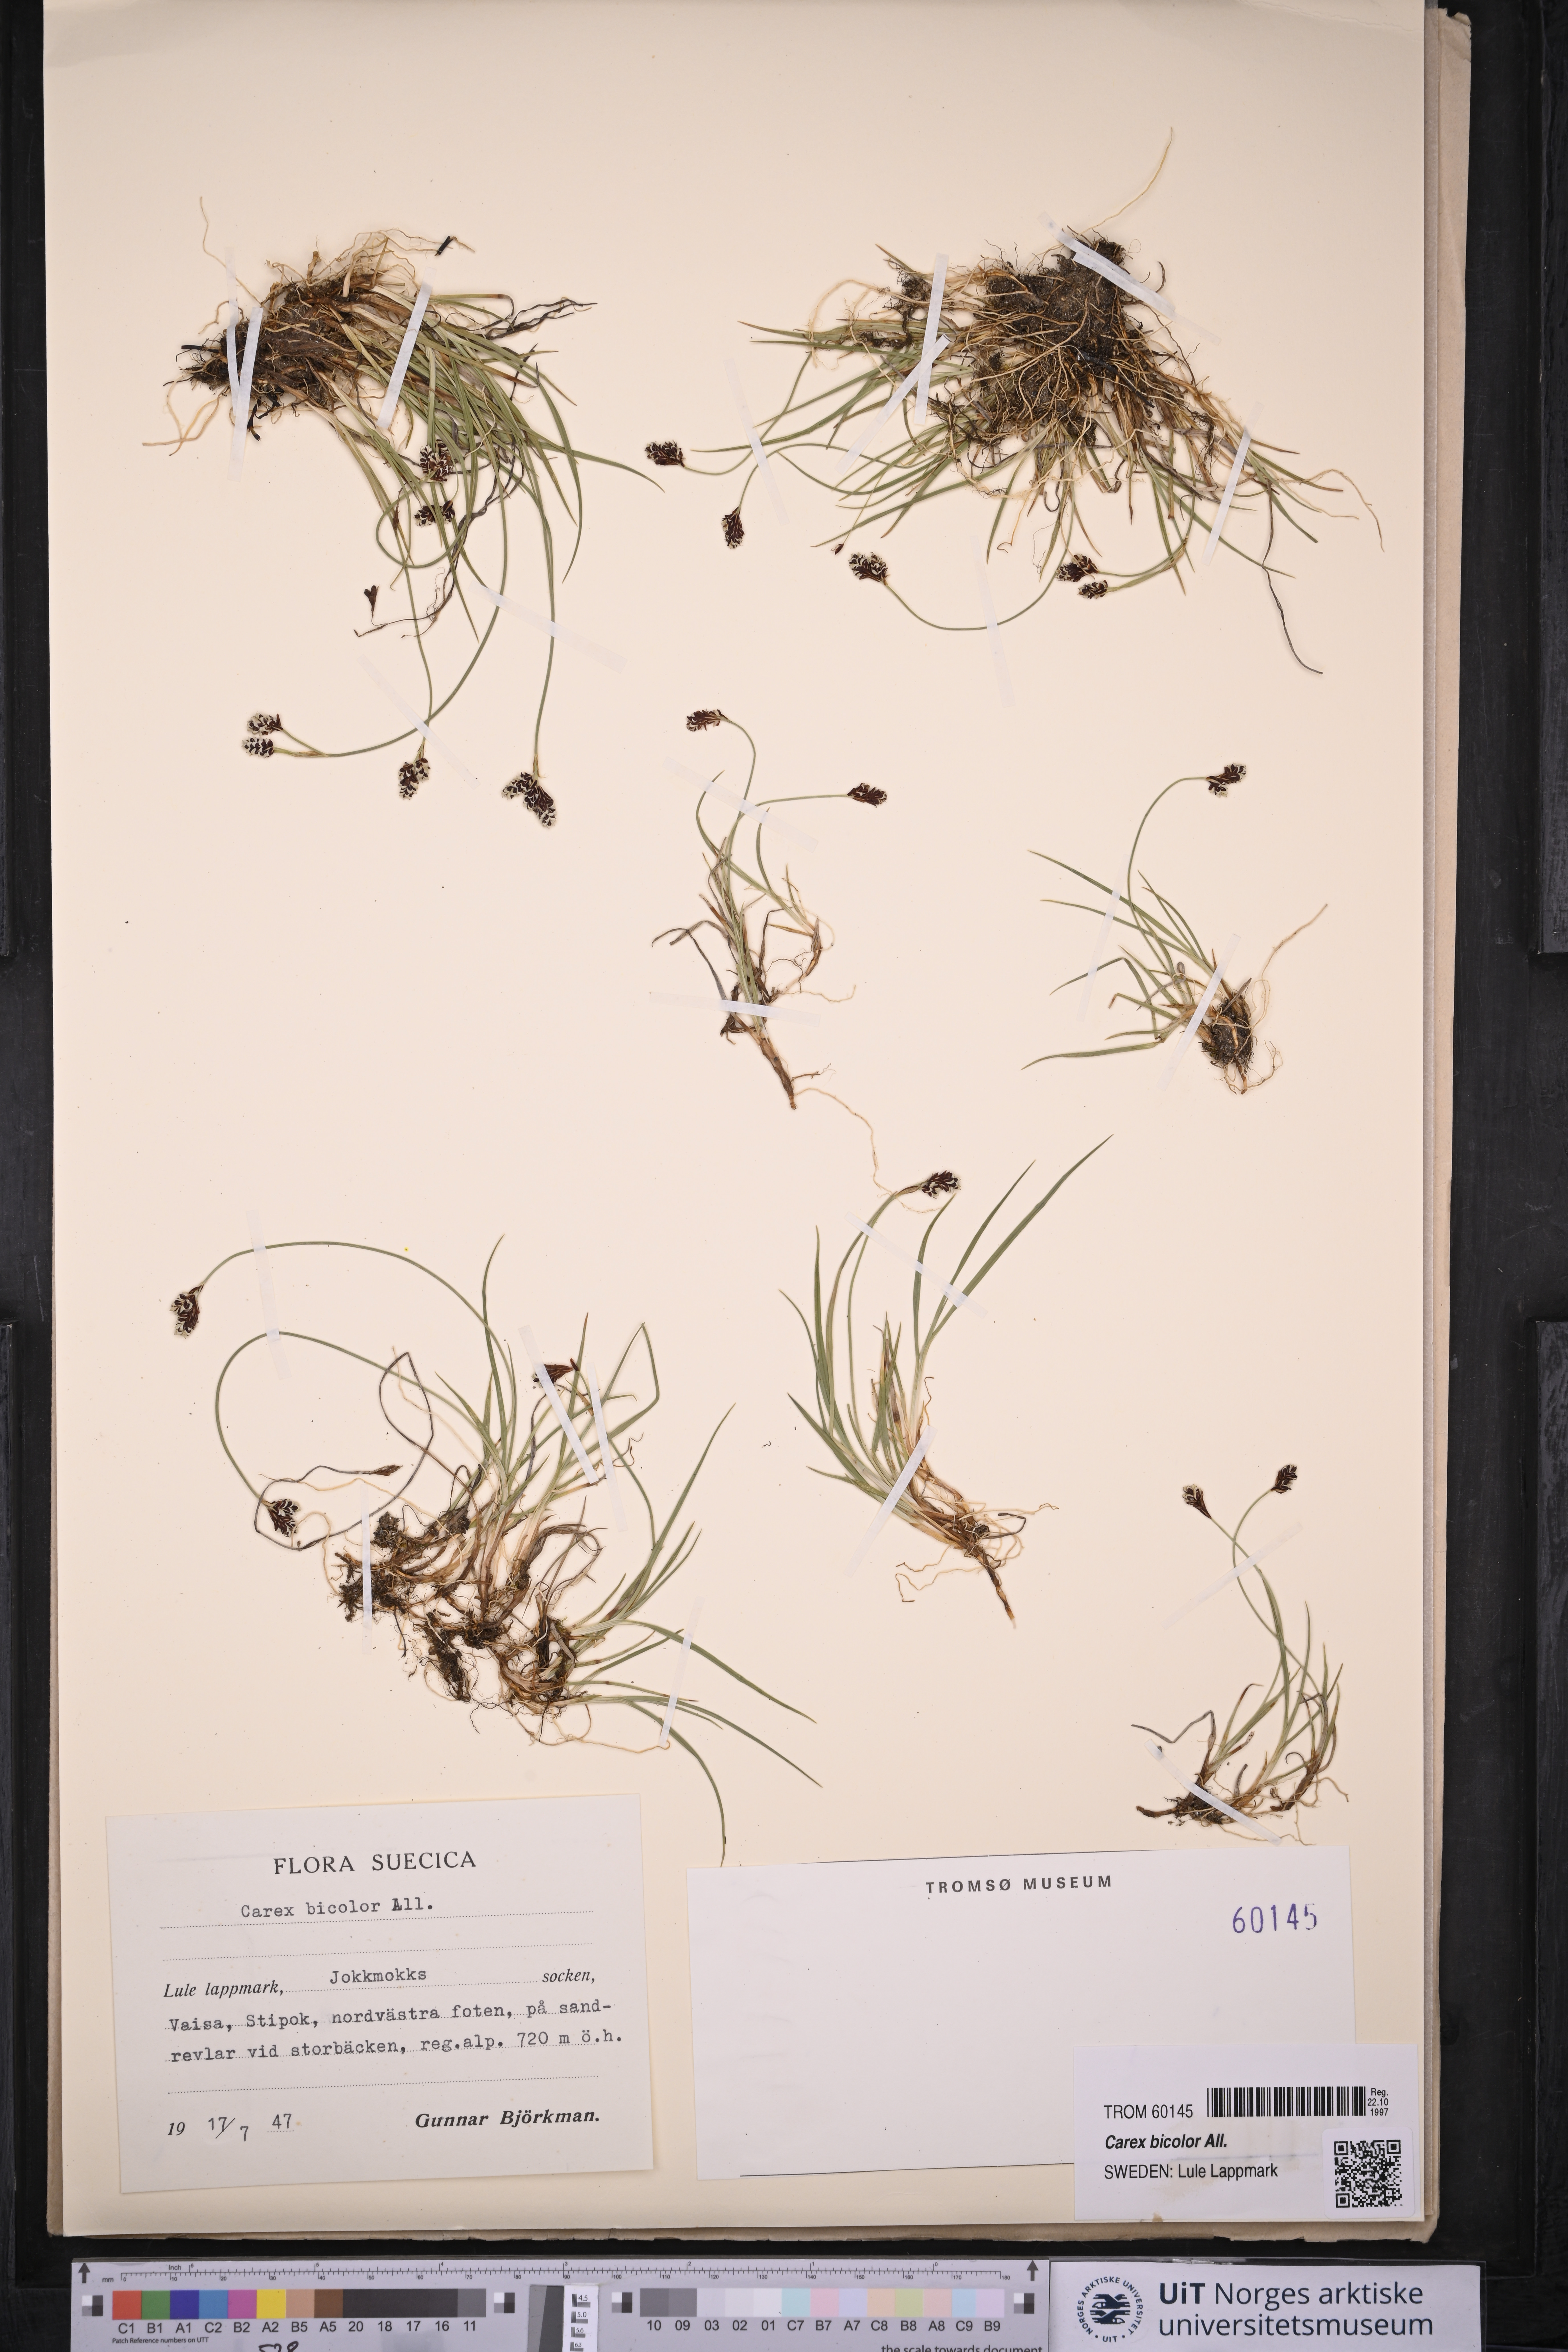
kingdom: Plantae
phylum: Tracheophyta
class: Liliopsida
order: Poales
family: Cyperaceae
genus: Carex
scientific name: Carex bicolor
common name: Bicoloured sedge
